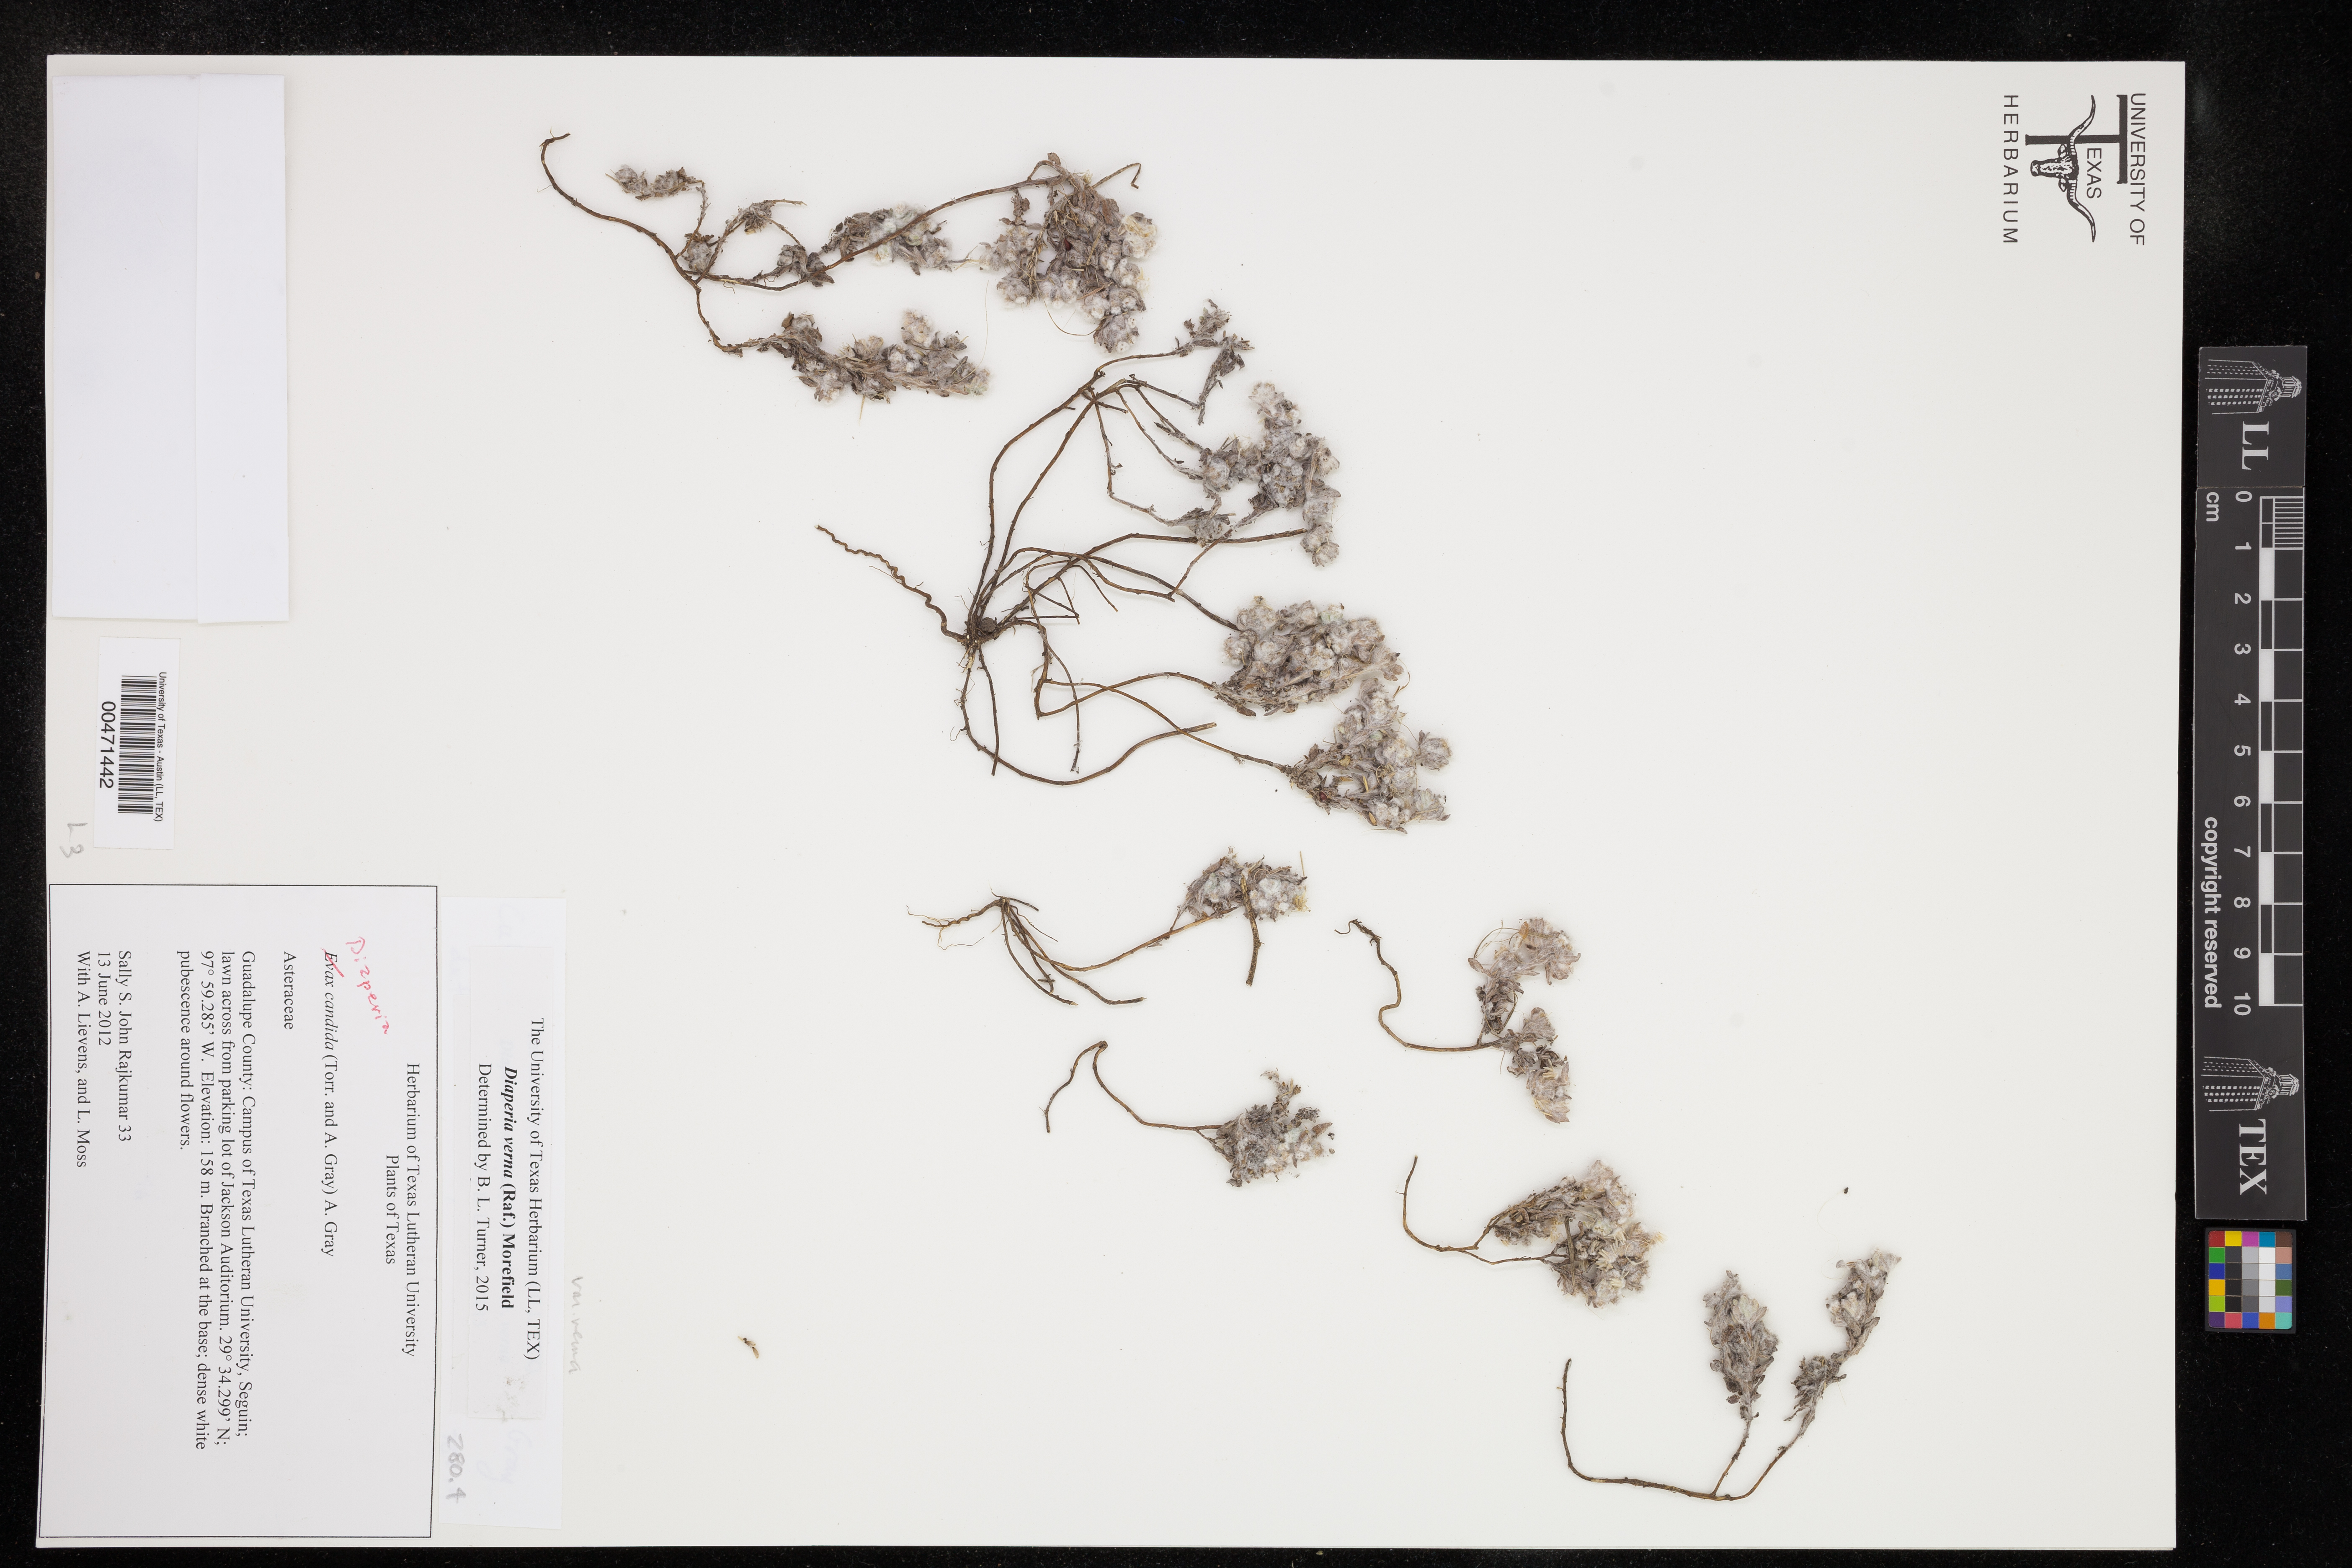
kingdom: Plantae
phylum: Tracheophyta
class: Magnoliopsida
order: Asterales
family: Asteraceae
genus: Diaperia
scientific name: Diaperia verna
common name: Many-stem rabbit-tobacco
